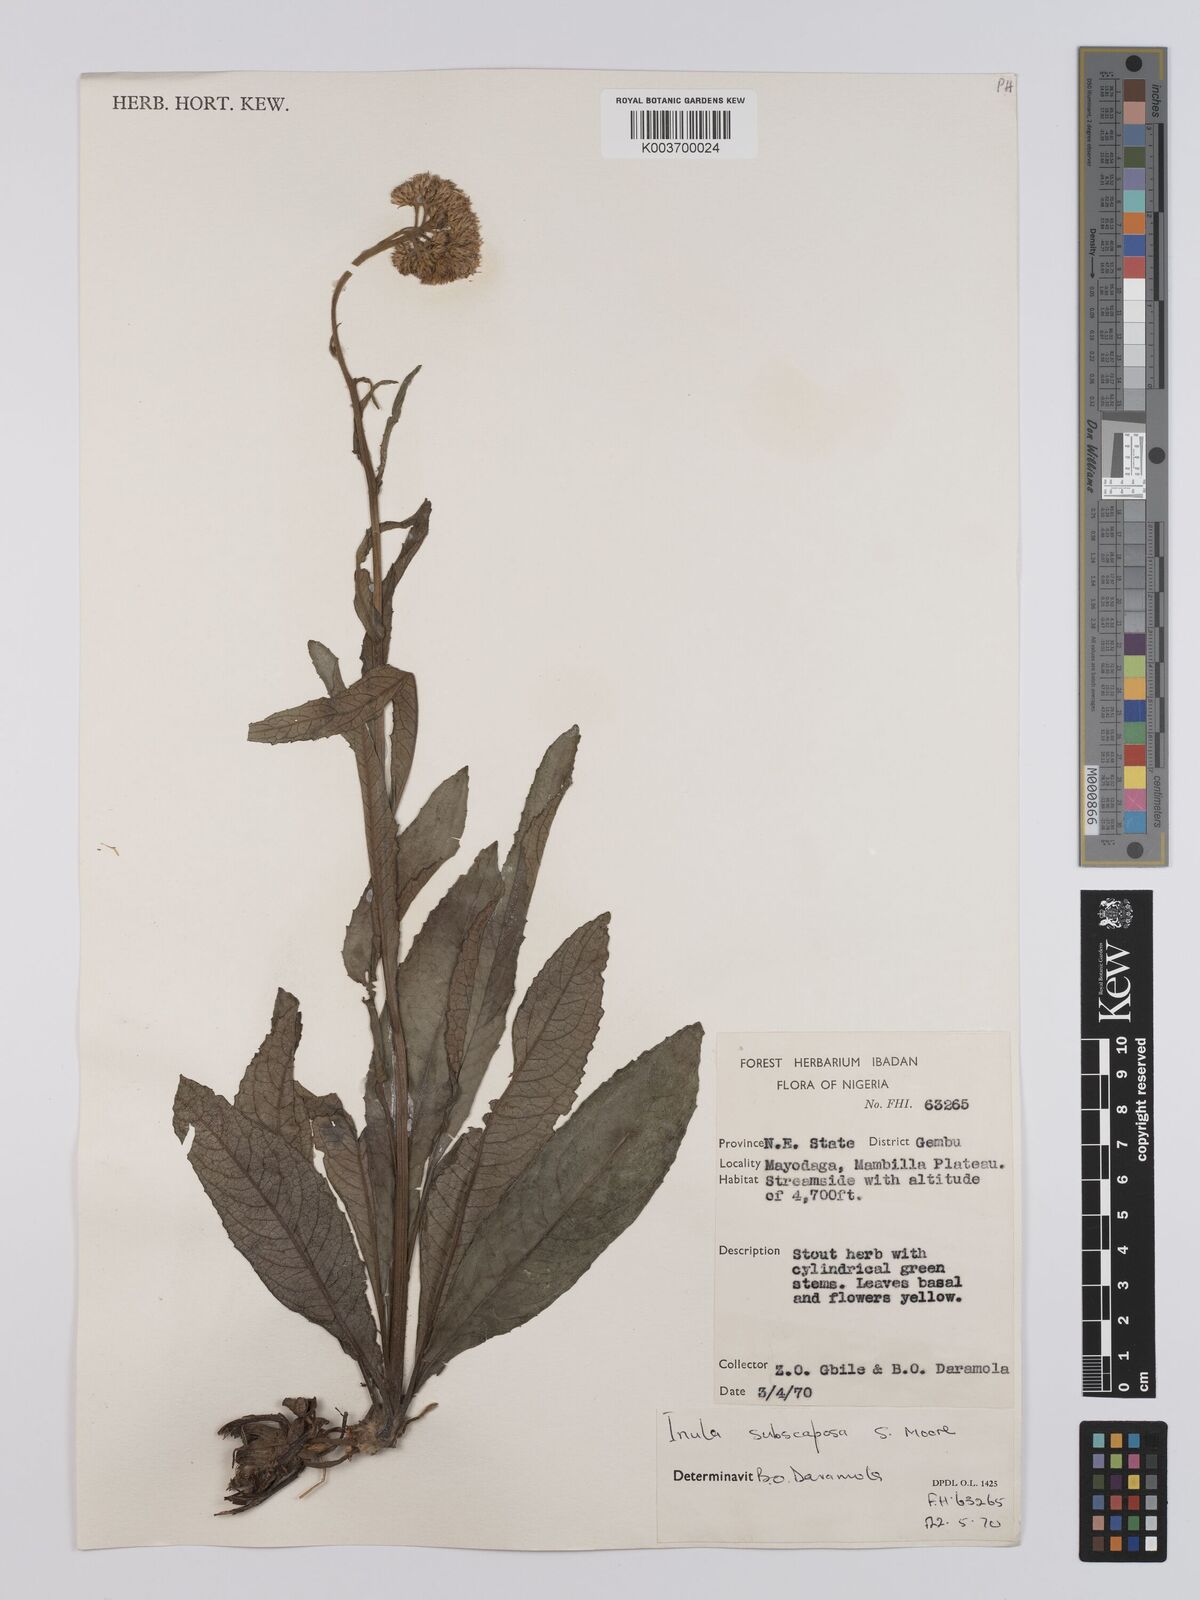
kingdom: Plantae
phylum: Tracheophyta
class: Magnoliopsida
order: Asterales
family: Asteraceae
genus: Monactinocephalus
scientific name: Monactinocephalus paniculatus
